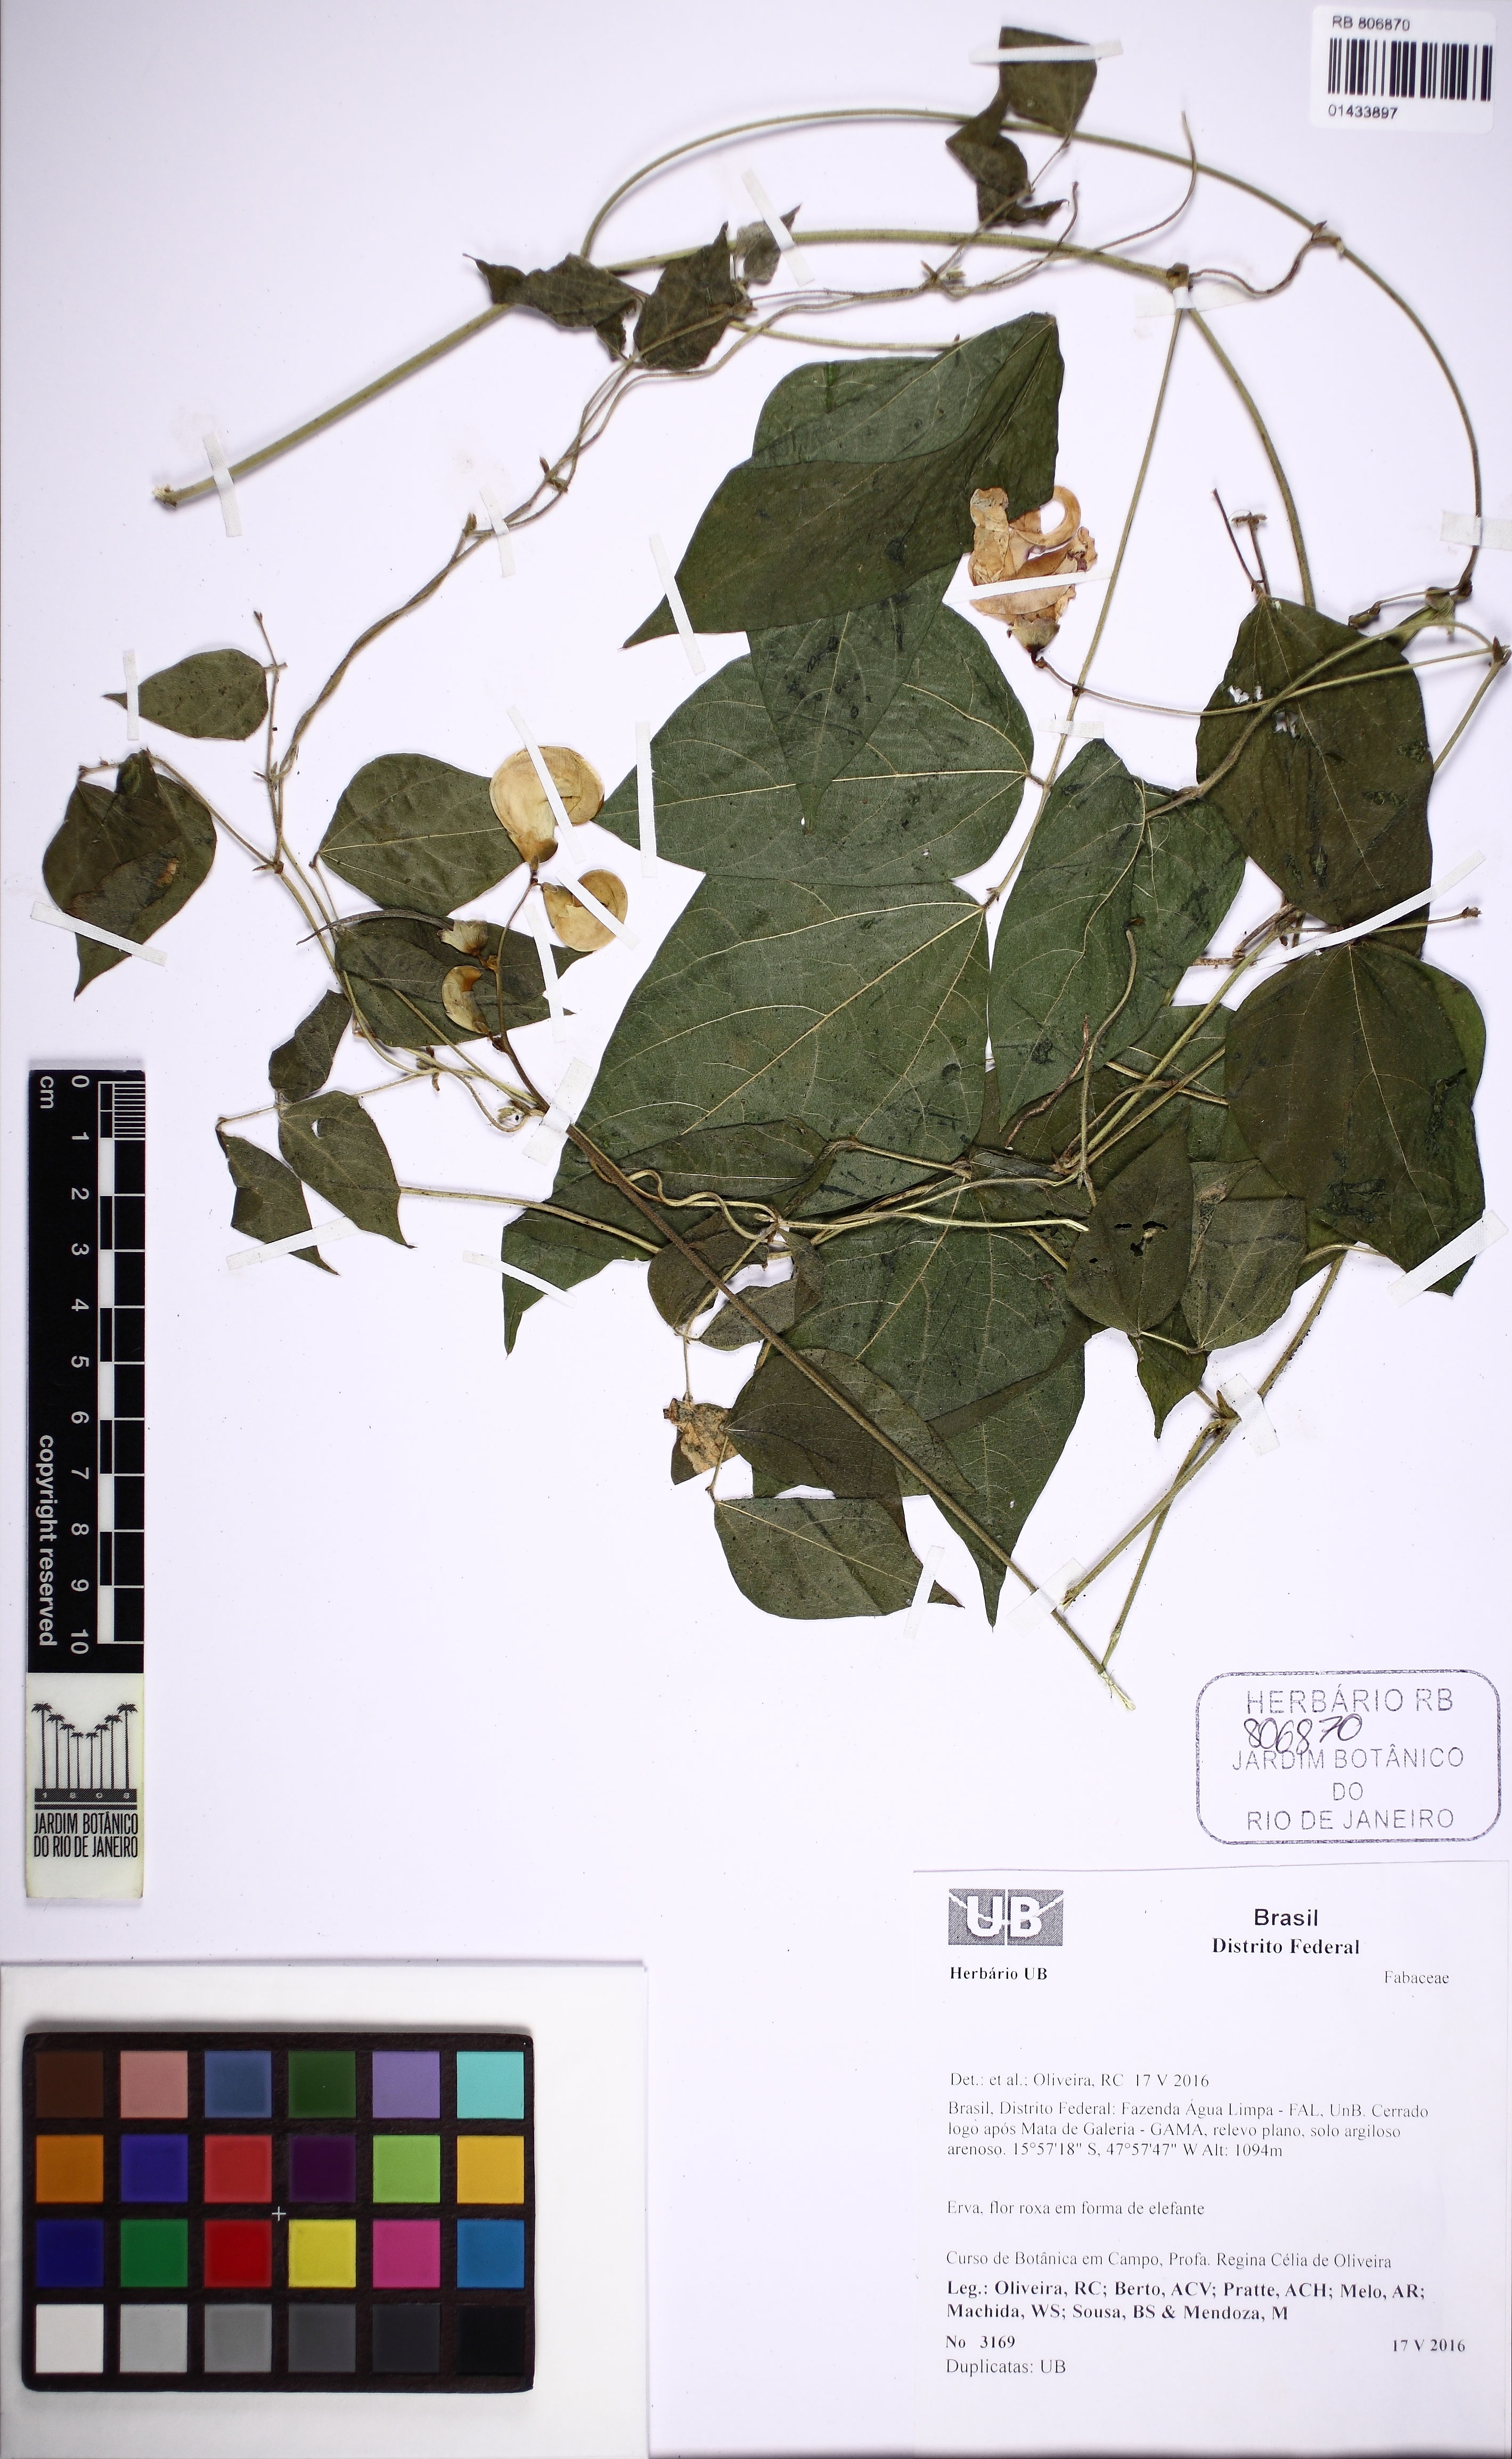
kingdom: Plantae
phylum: Tracheophyta
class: Magnoliopsida
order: Fabales
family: Fabaceae
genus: Vigna
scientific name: Vigna
